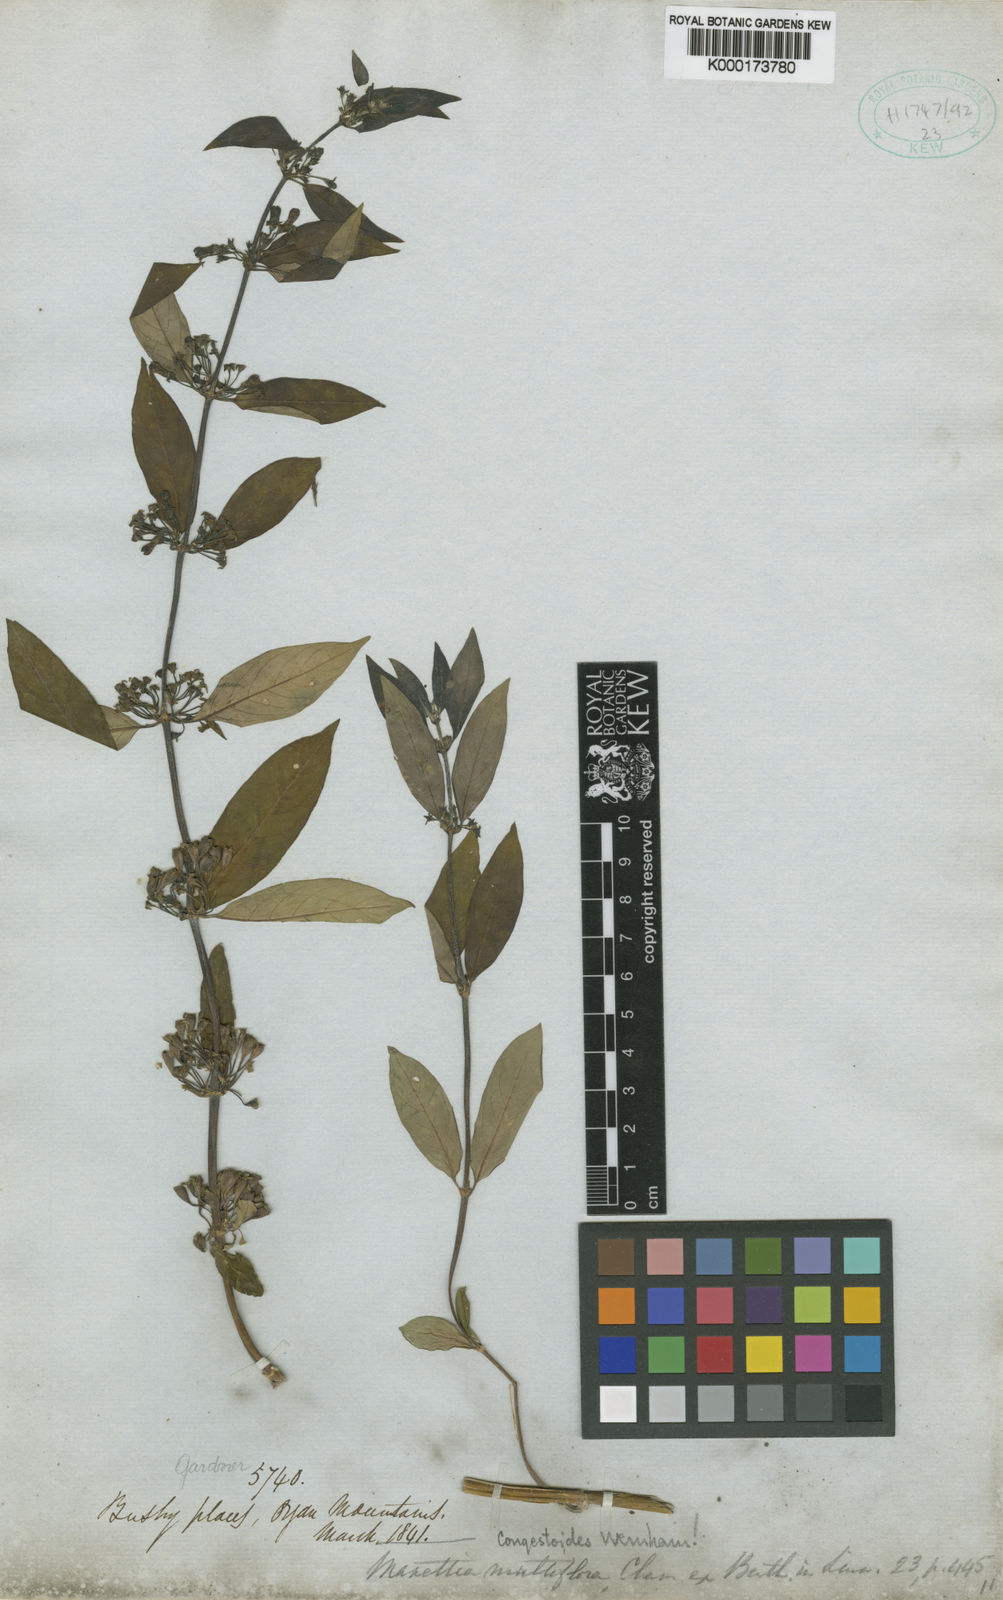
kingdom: Plantae
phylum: Tracheophyta
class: Magnoliopsida
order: Gentianales
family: Rubiaceae
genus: Manettia
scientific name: Manettia congestoides
